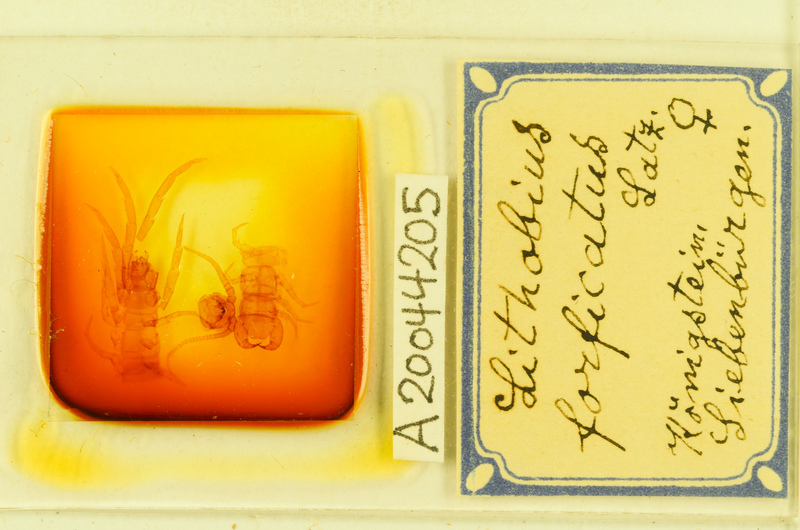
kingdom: Animalia
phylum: Arthropoda
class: Chilopoda
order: Lithobiomorpha
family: Lithobiidae
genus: Lithobius
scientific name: Lithobius forficatus
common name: Centipede
